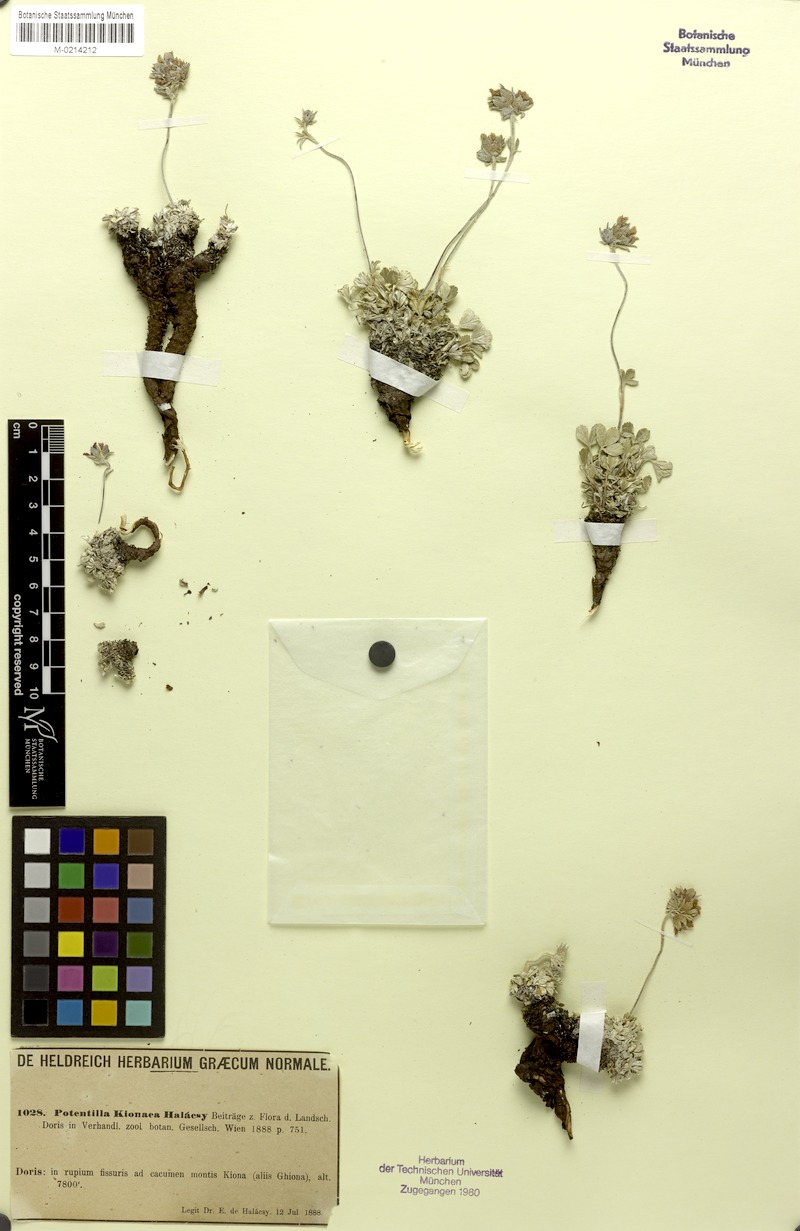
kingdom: Plantae
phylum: Tracheophyta
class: Magnoliopsida
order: Rosales
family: Rosaceae
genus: Potentilla
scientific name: Potentilla kionaea
